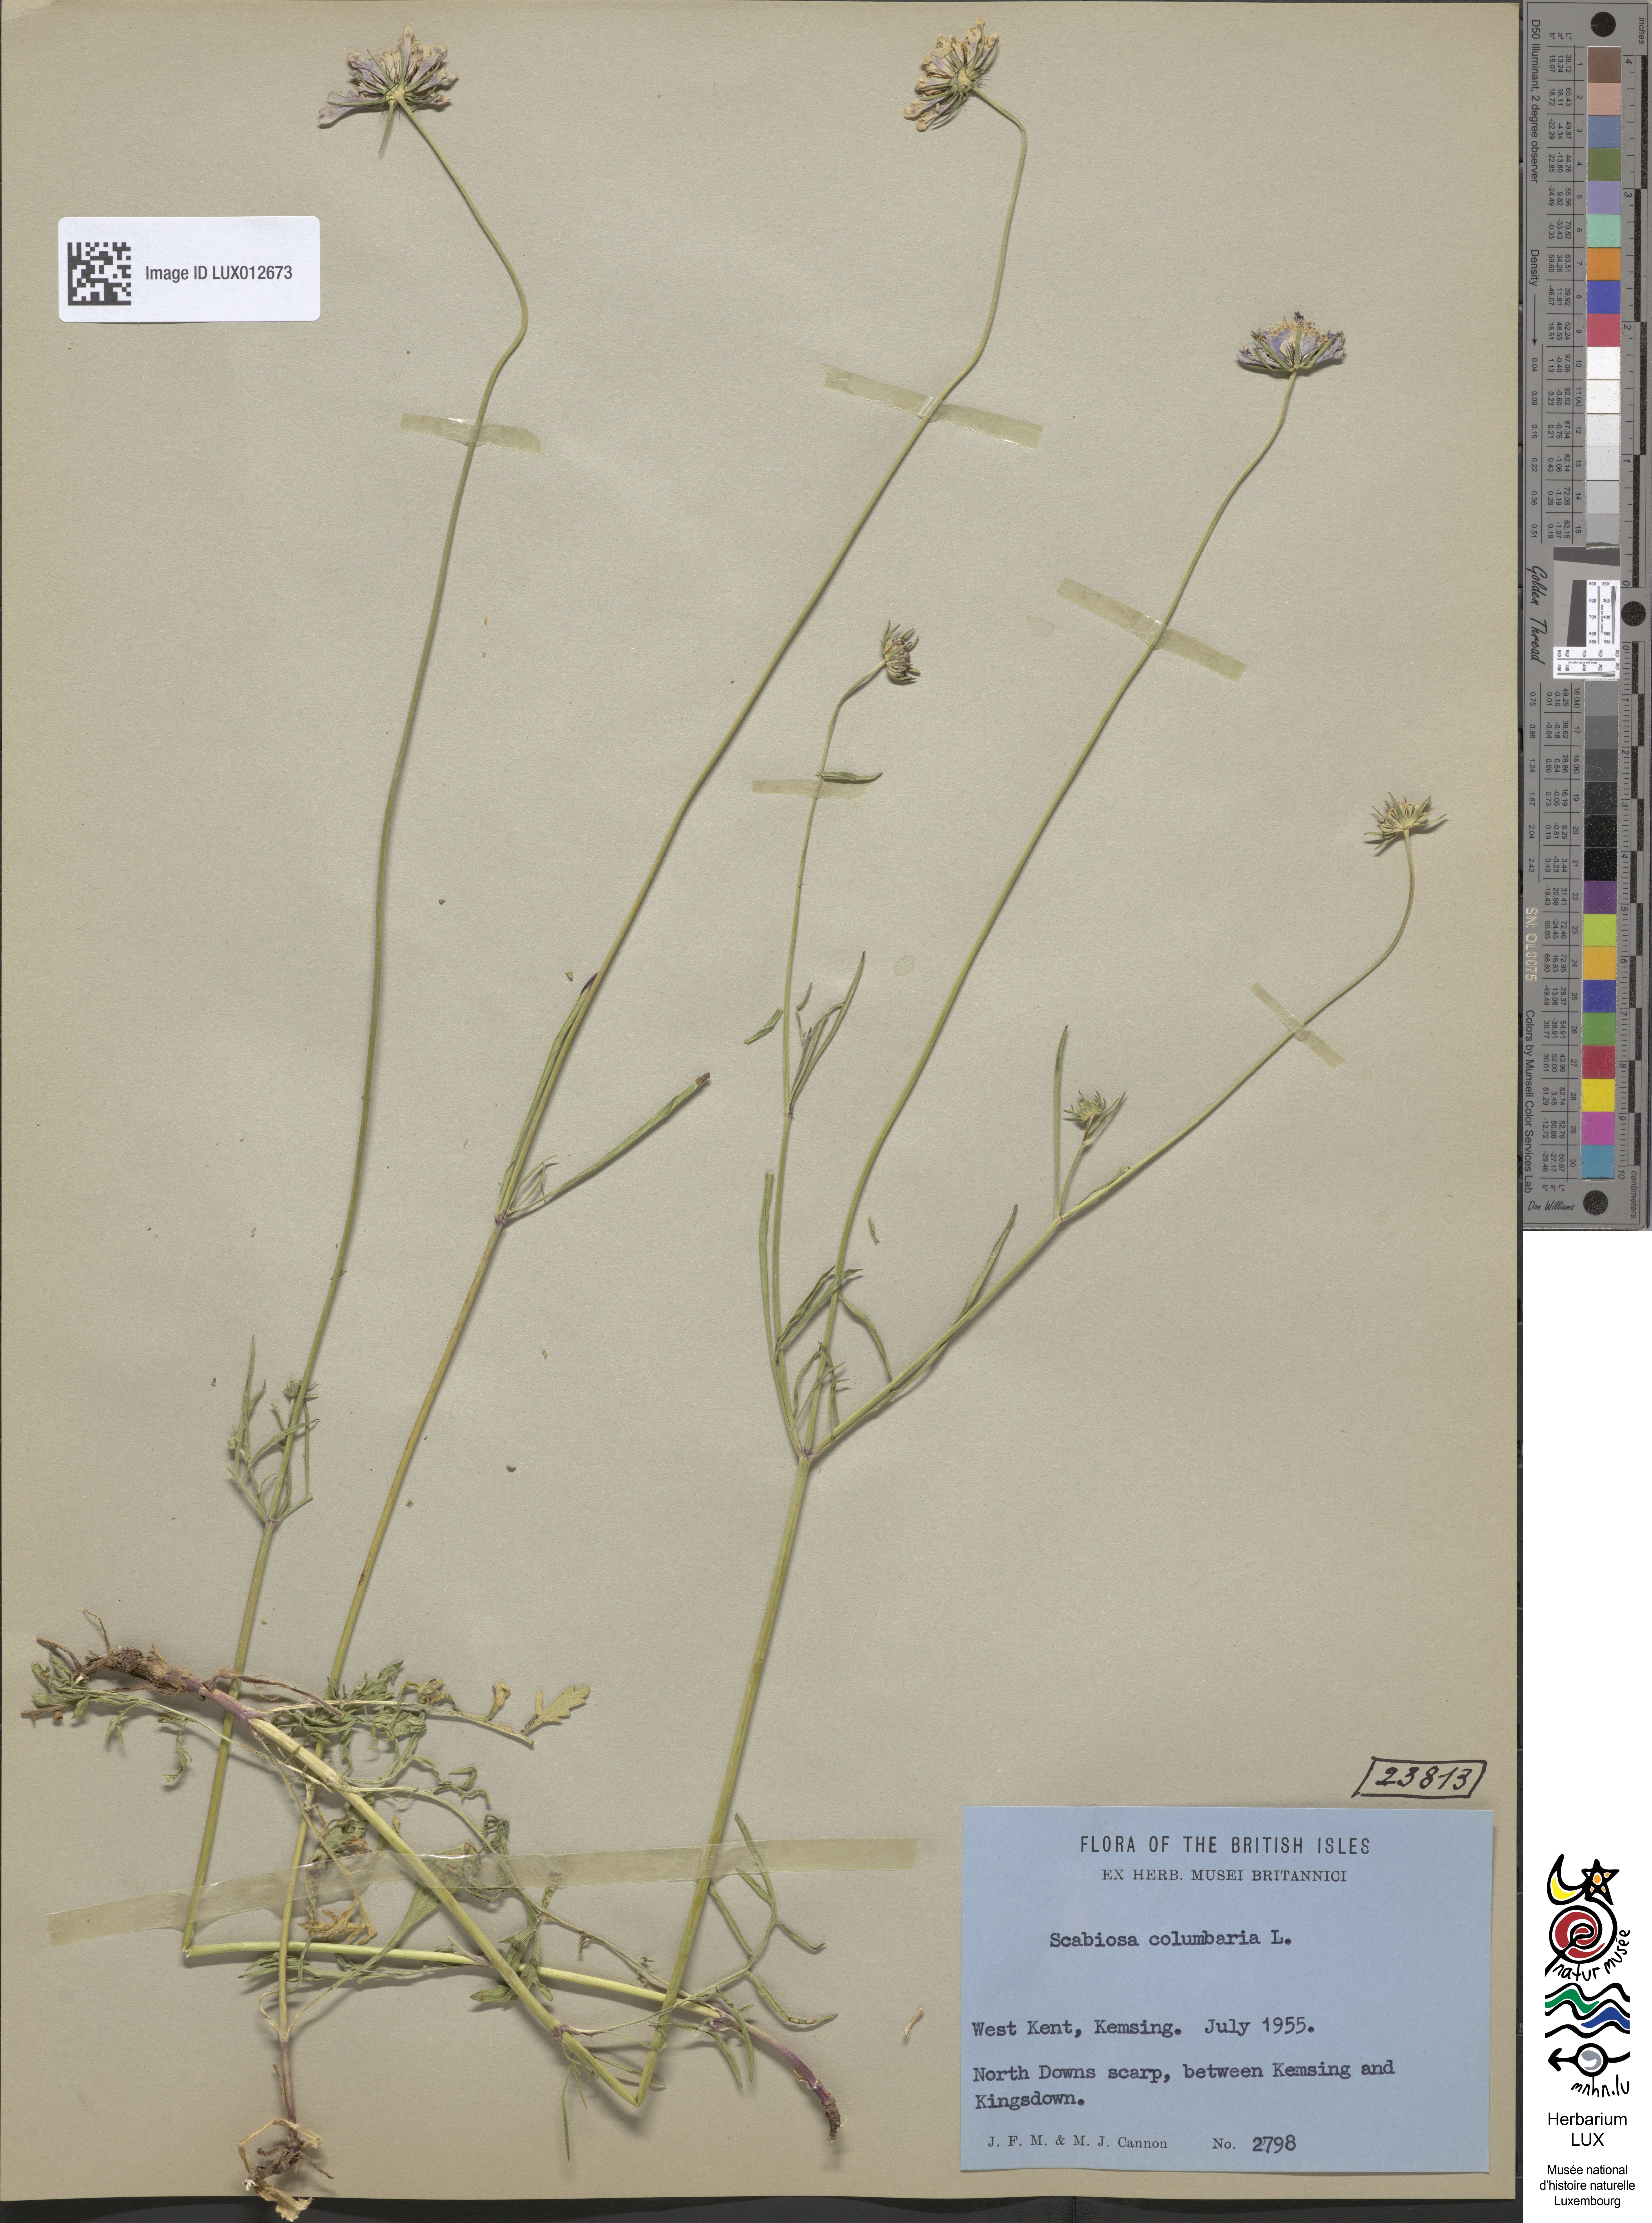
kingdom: Plantae
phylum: Tracheophyta
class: Magnoliopsida
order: Dipsacales
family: Caprifoliaceae
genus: Scabiosa
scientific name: Scabiosa columbaria
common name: Small scabious
